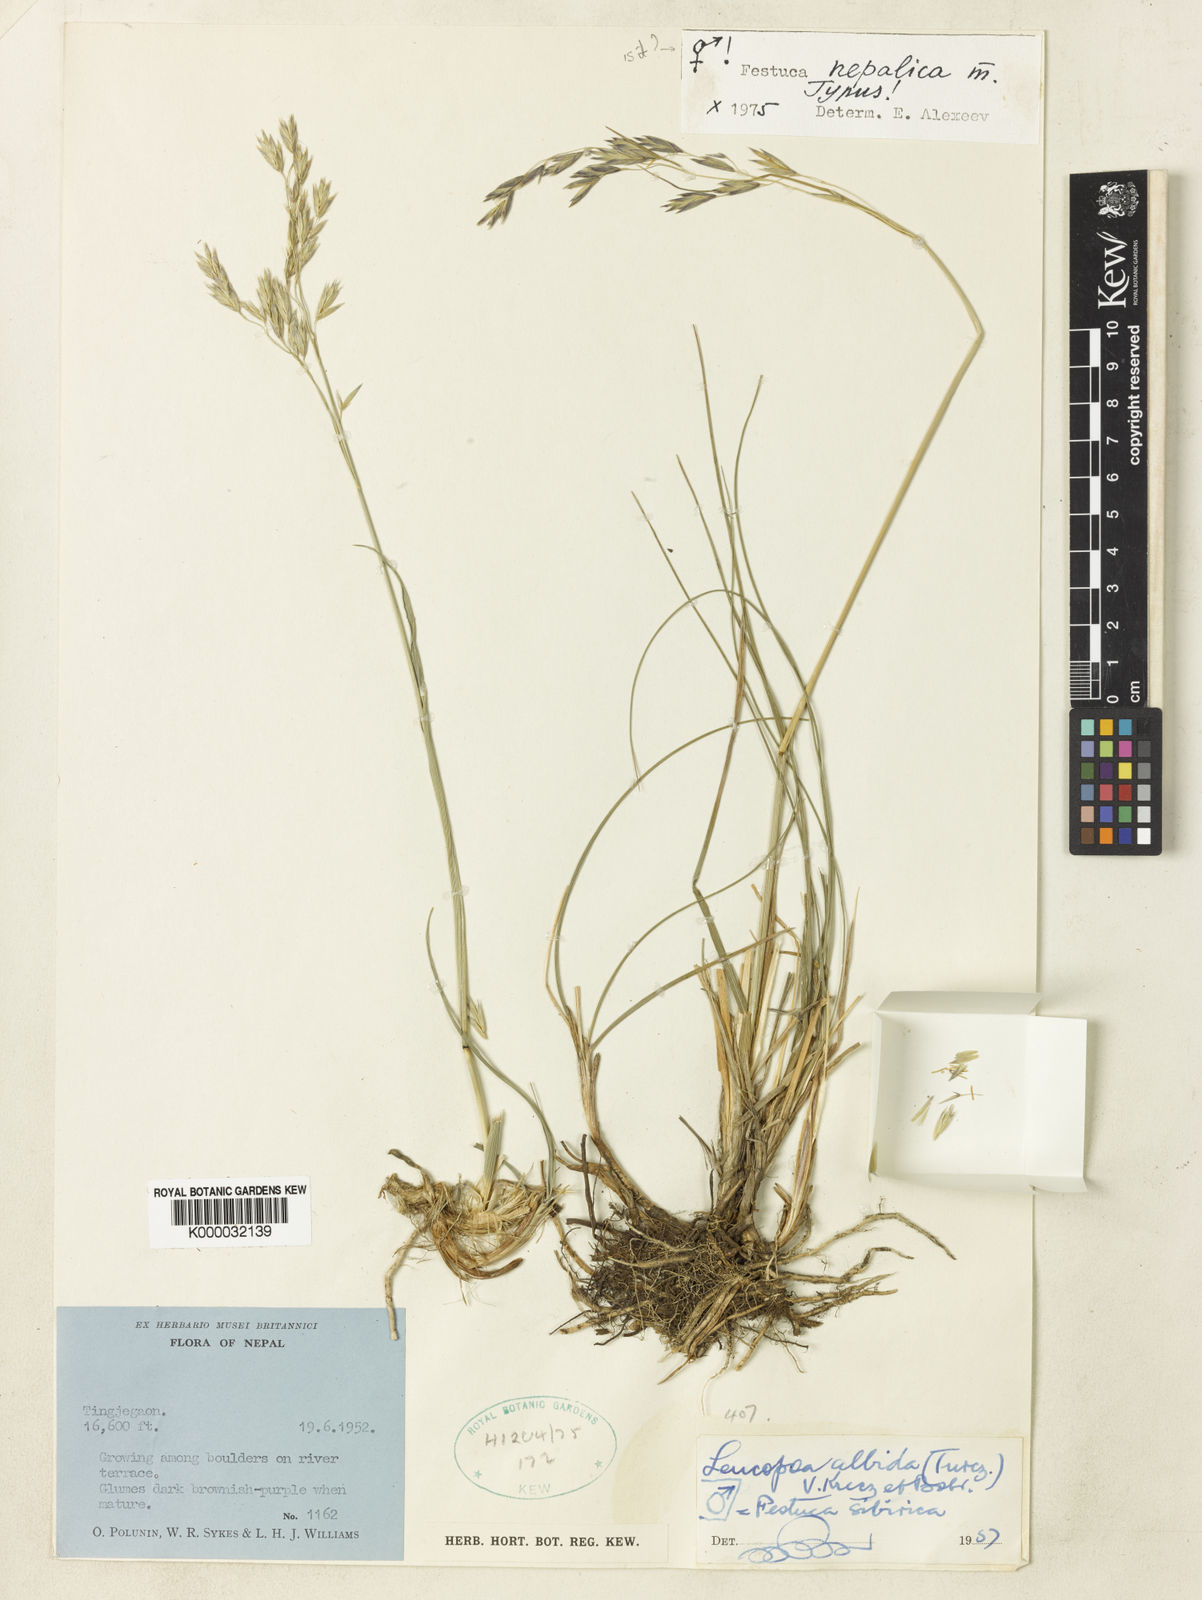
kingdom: Plantae
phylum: Tracheophyta
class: Liliopsida
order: Poales
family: Poaceae
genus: Festuca
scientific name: Festuca nepalica
